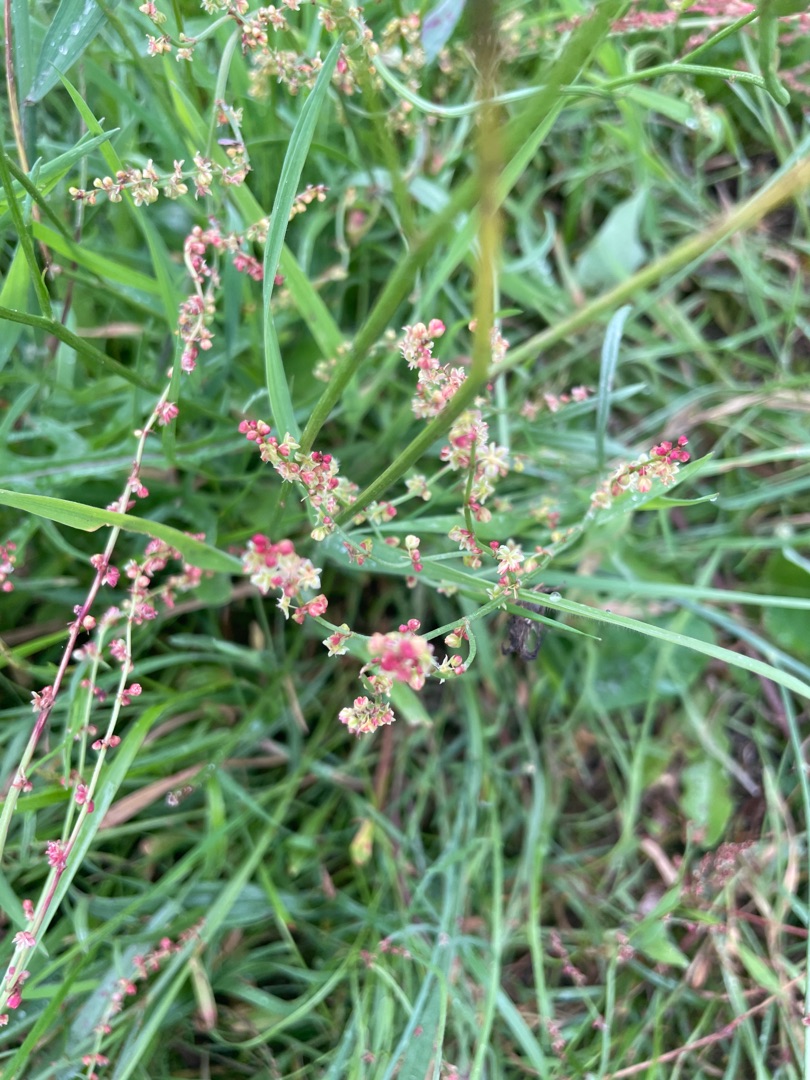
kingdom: Plantae
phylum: Tracheophyta
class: Magnoliopsida
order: Caryophyllales
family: Polygonaceae
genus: Rumex
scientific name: Rumex acetosella
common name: Rødknæ
